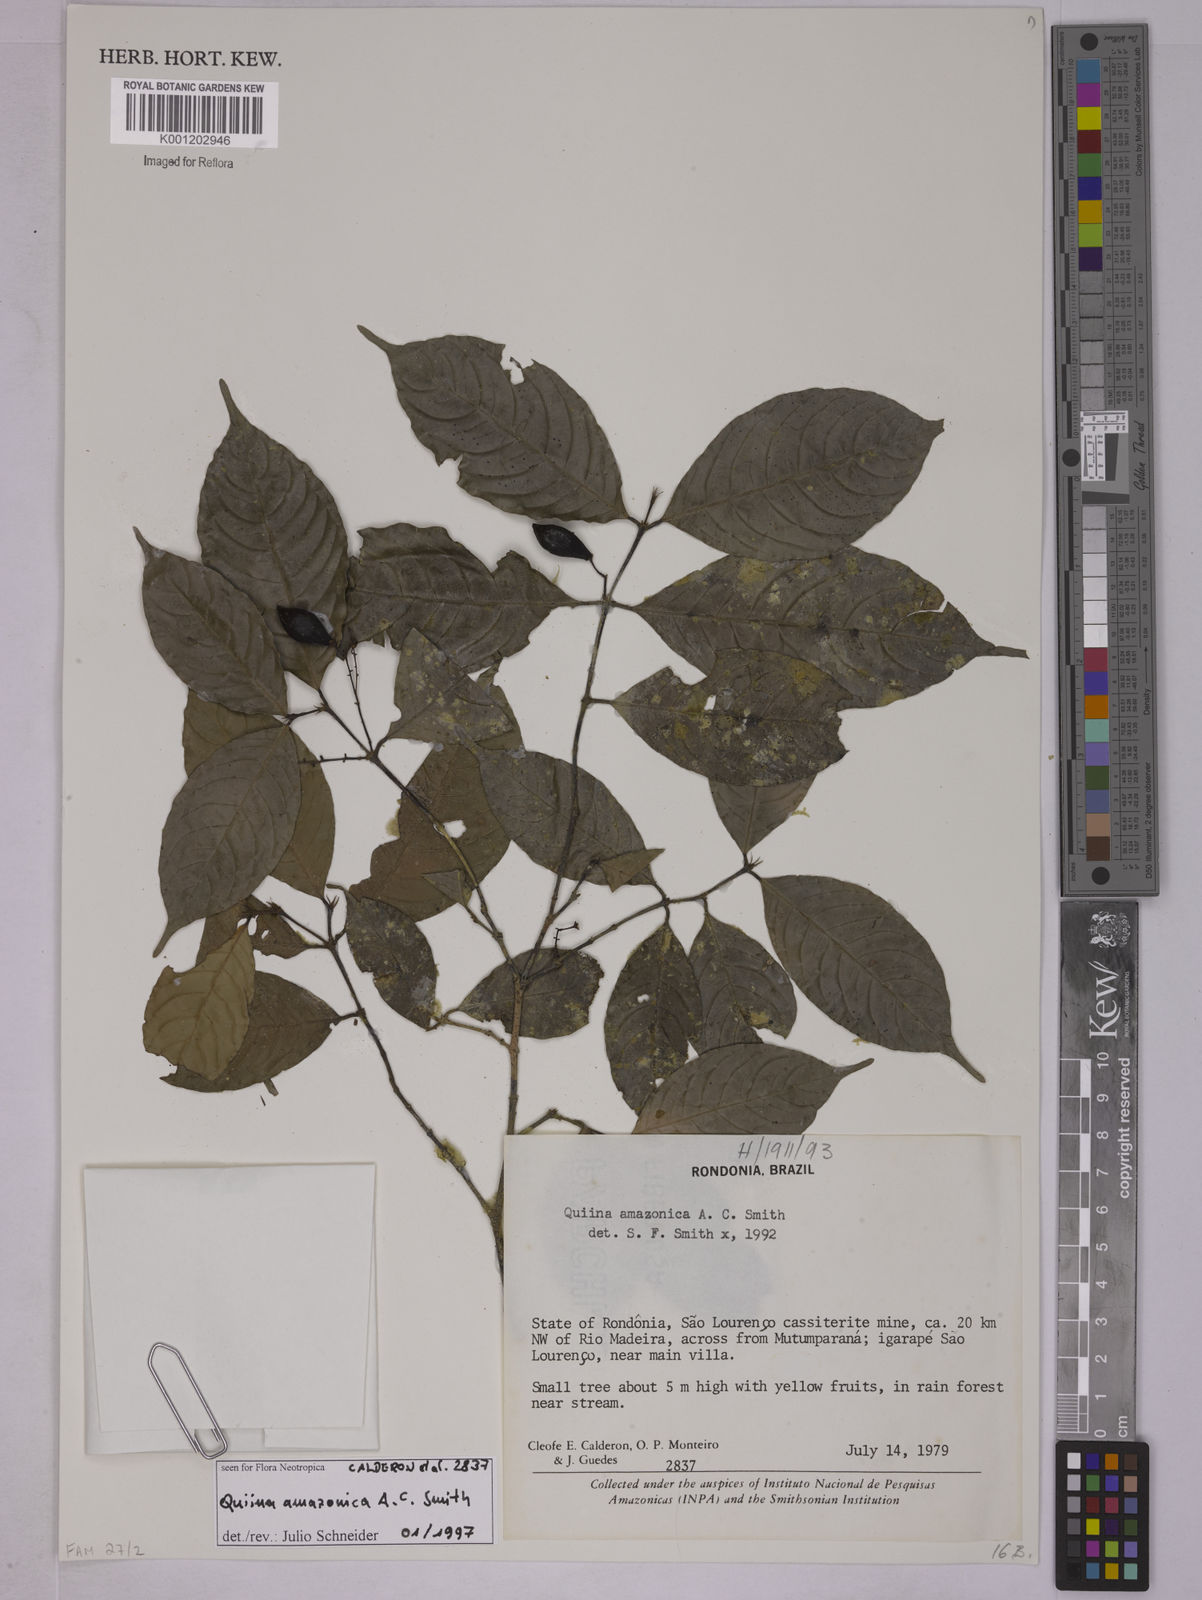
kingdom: Plantae
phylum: Tracheophyta
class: Magnoliopsida
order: Malpighiales
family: Quiinaceae
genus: Quiina
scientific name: Quiina amazonica
